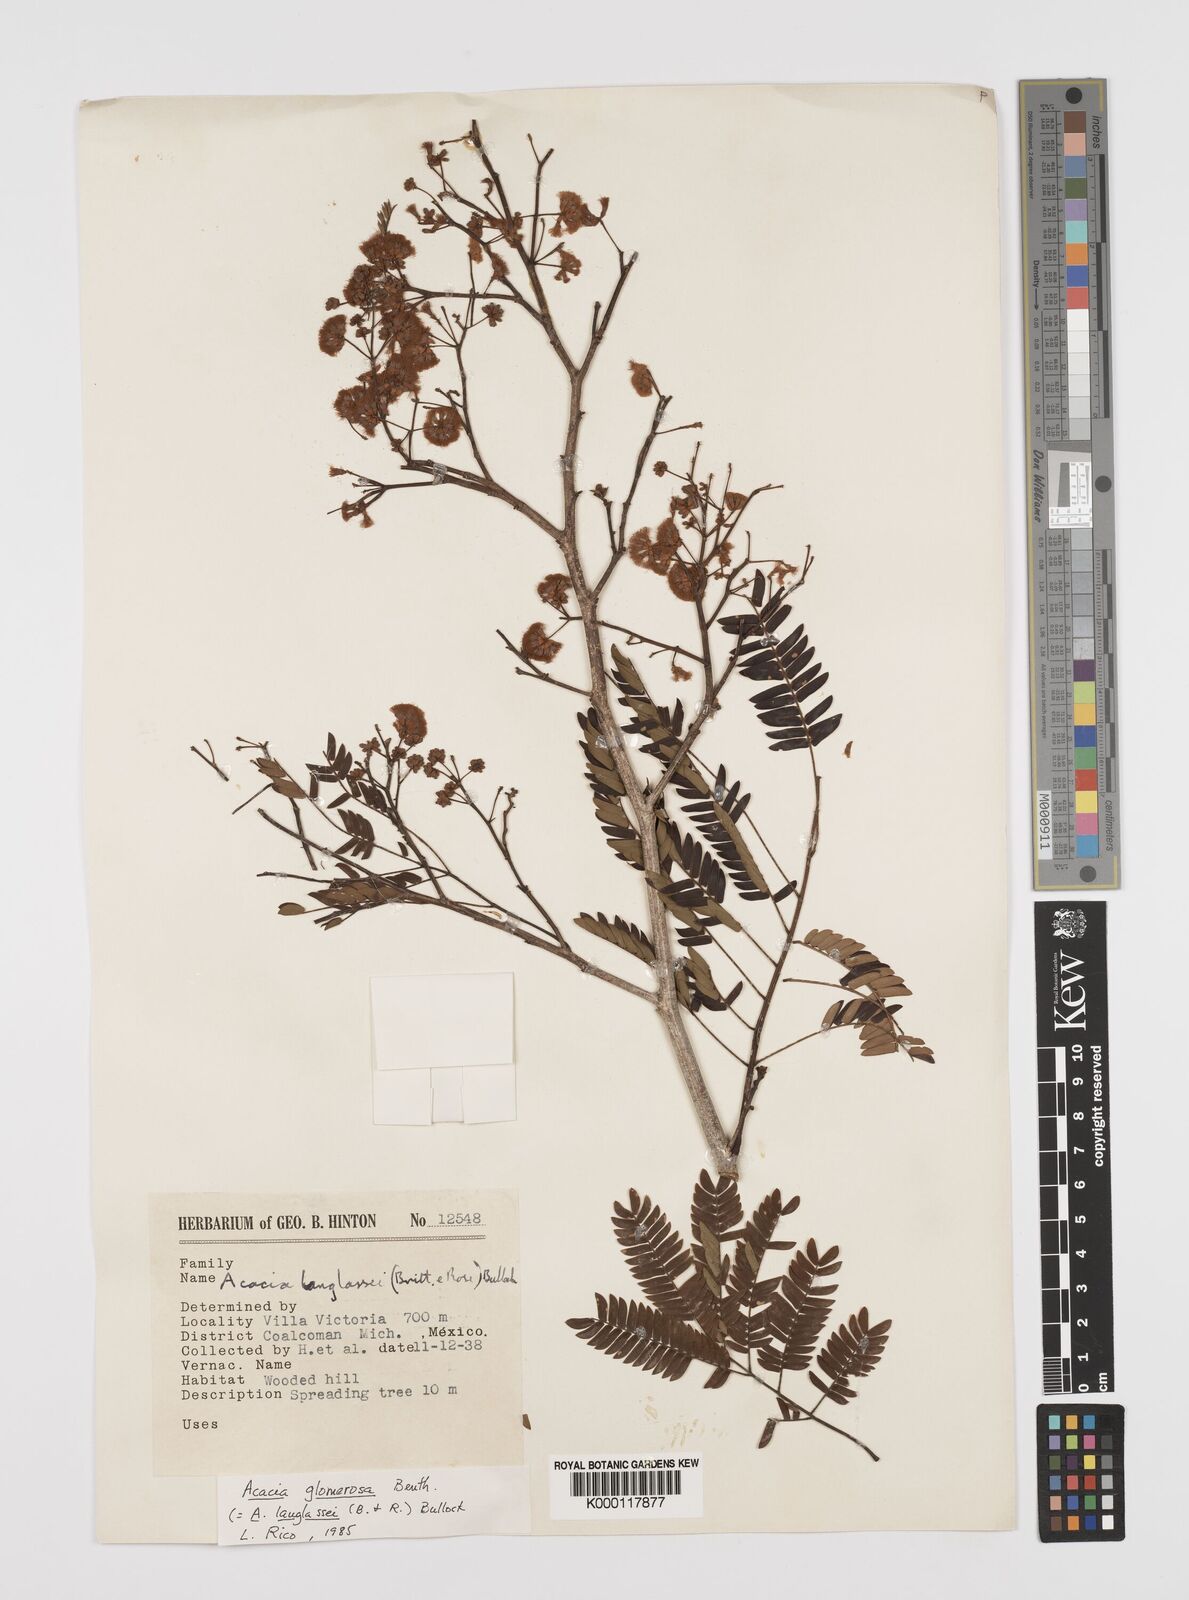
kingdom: Plantae
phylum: Tracheophyta
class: Magnoliopsida
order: Fabales
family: Fabaceae
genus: Senegalia
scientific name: Senegalia polyphylla
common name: White-tamarind
